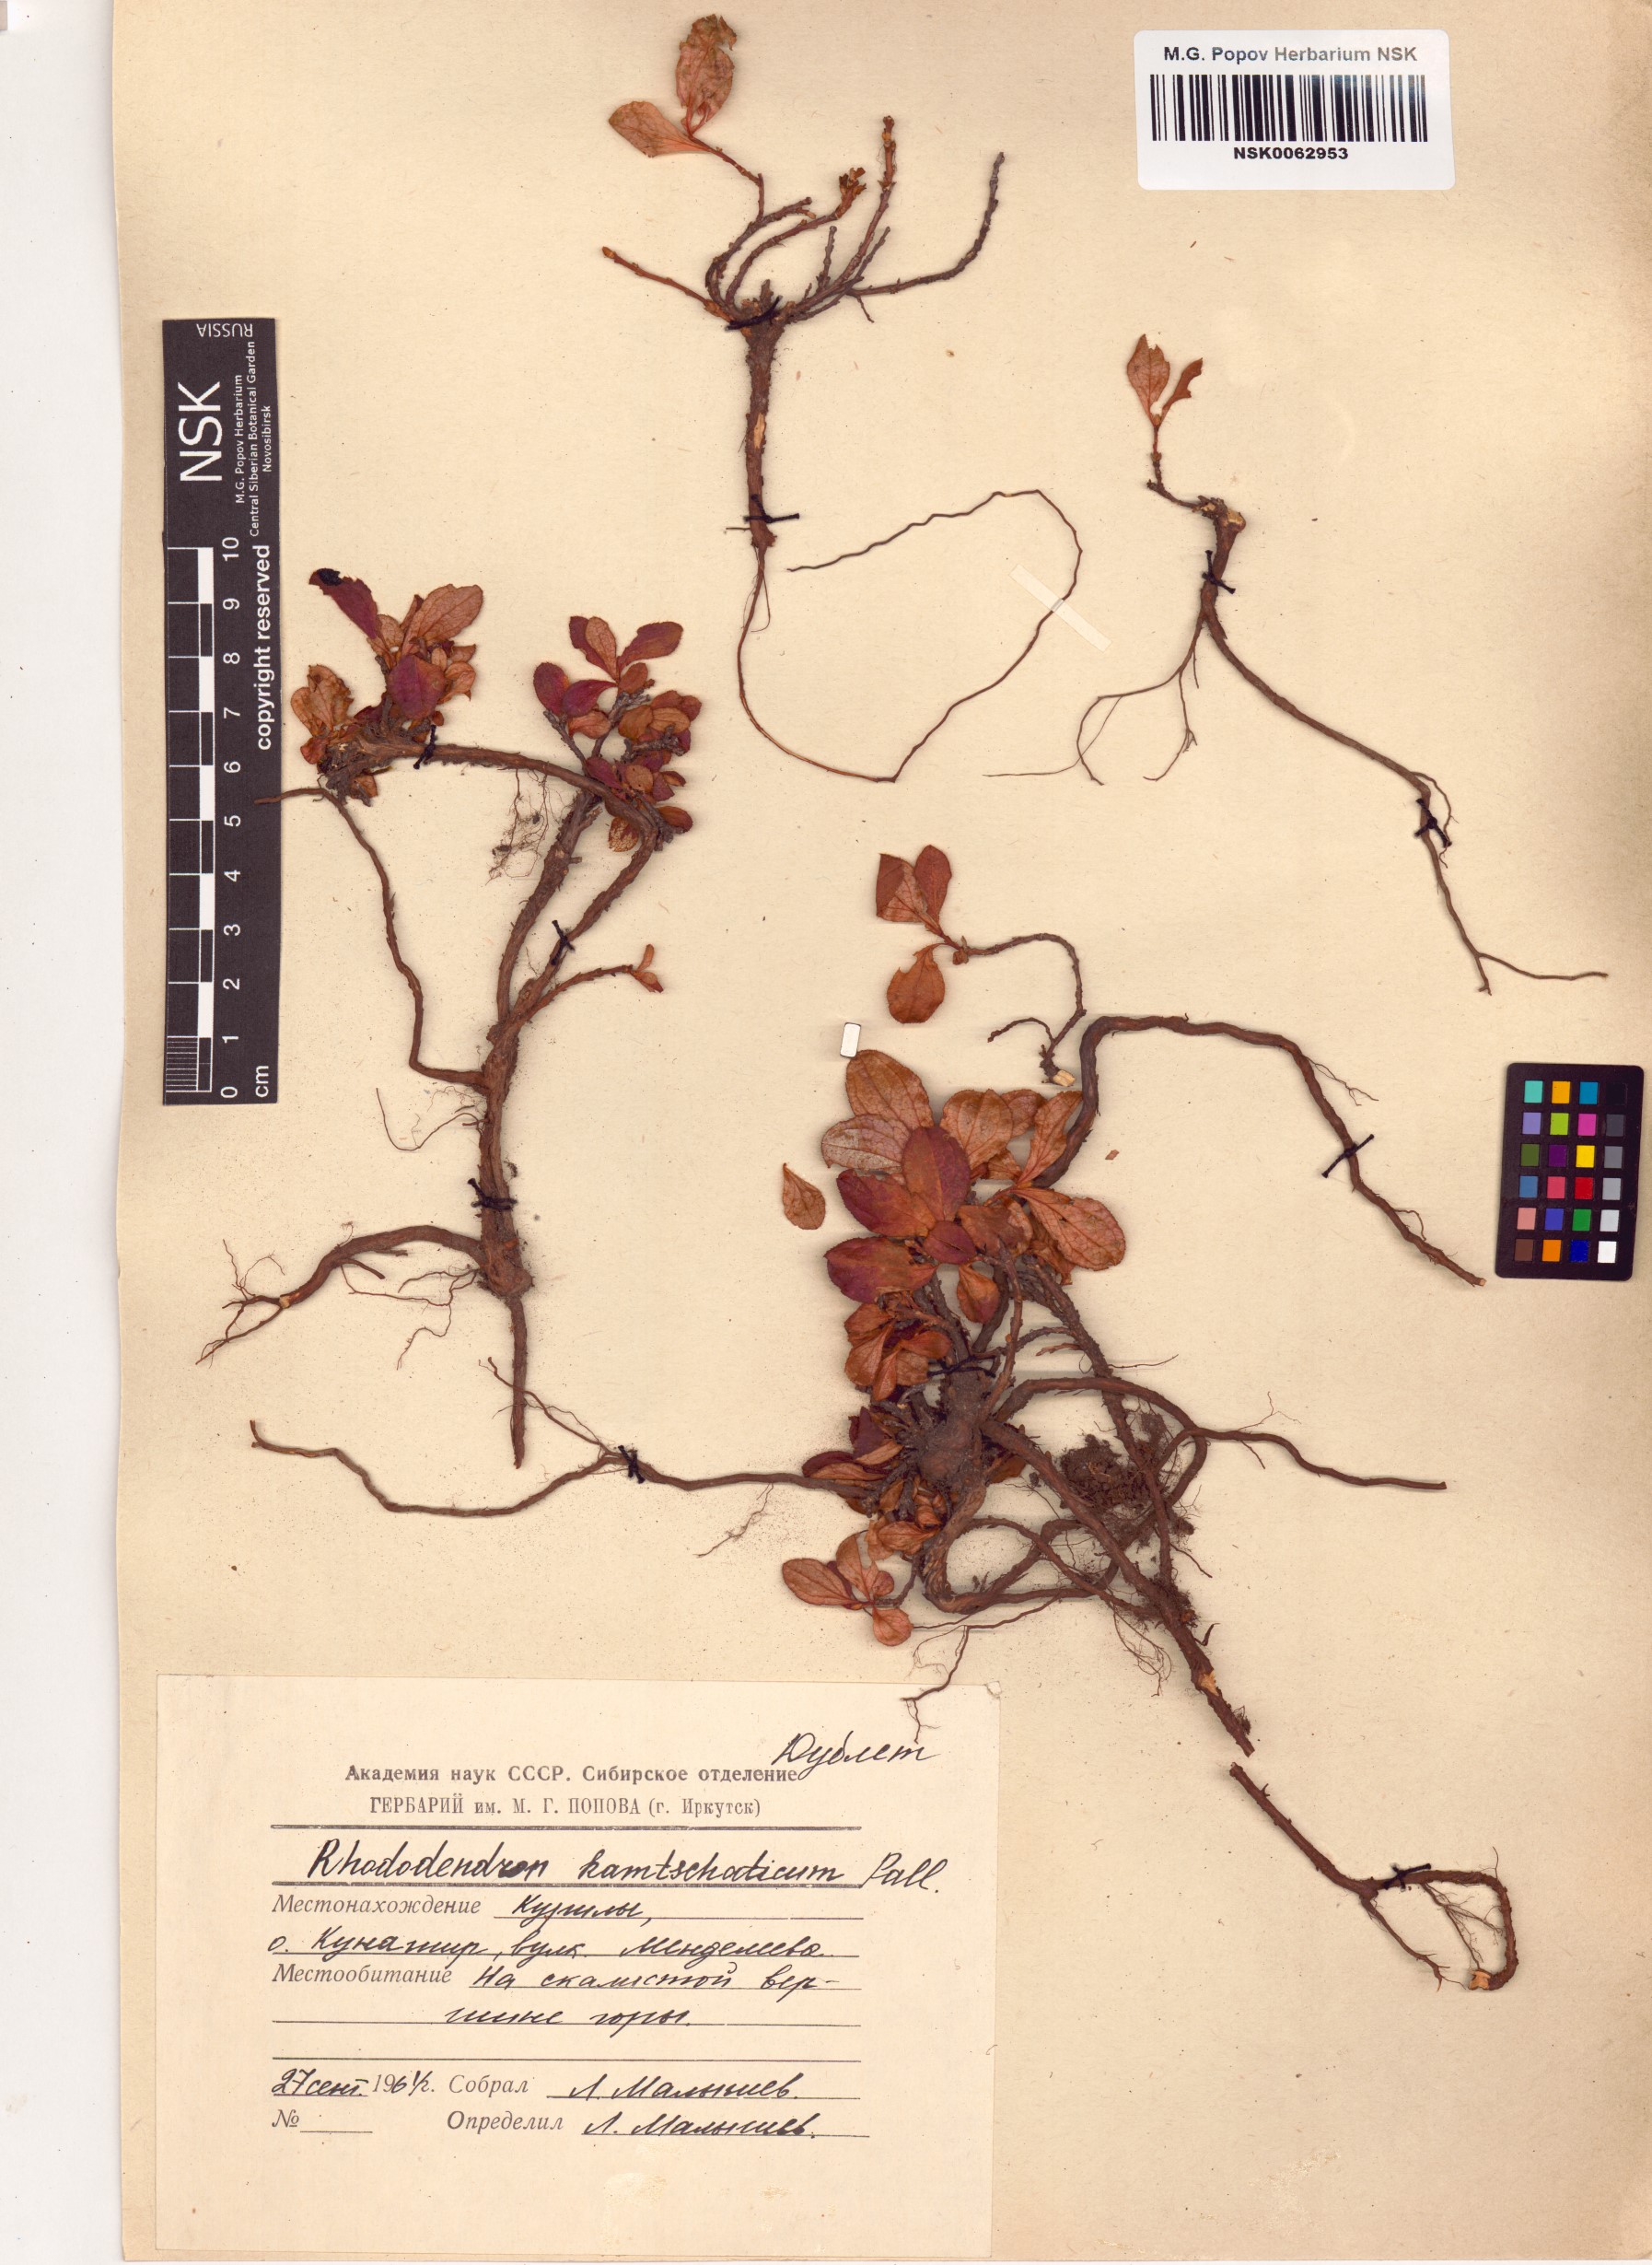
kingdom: Plantae
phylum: Tracheophyta
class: Magnoliopsida
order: Ericales
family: Ericaceae
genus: Rhododendron
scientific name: Rhododendron camtschaticum
